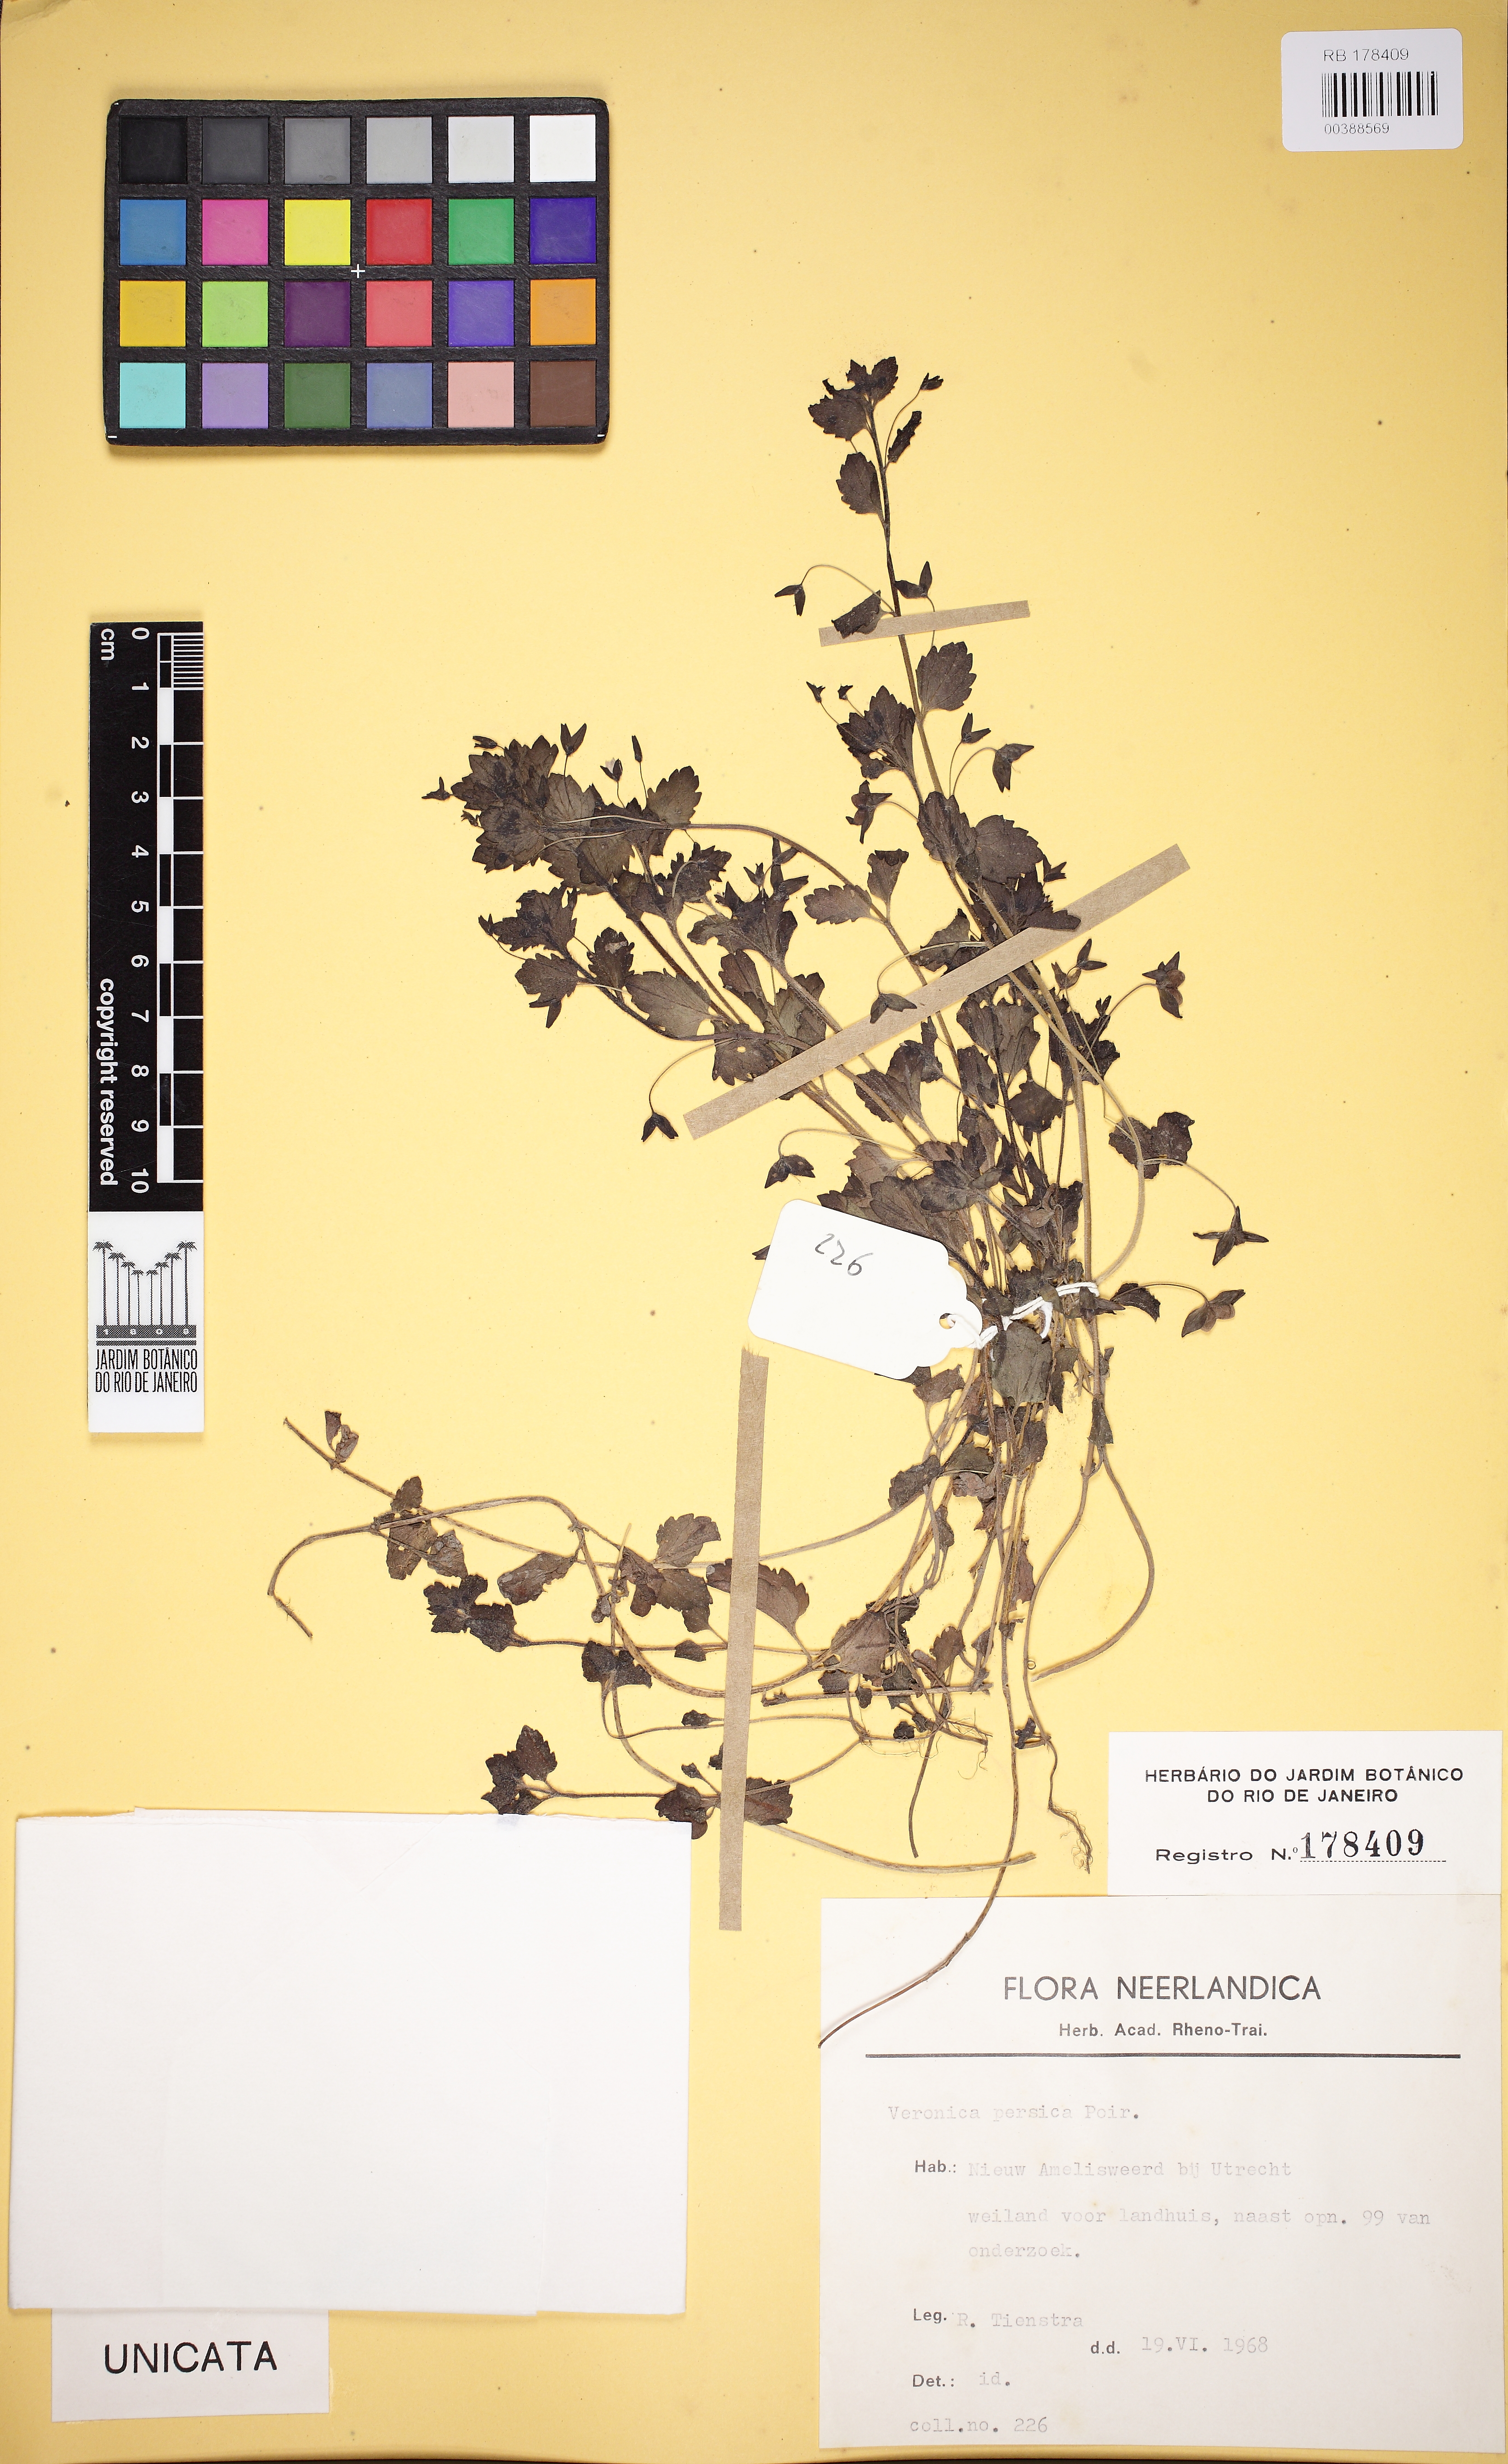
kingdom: Plantae
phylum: Tracheophyta
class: Magnoliopsida
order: Lamiales
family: Plantaginaceae
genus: Veronica
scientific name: Veronica persica
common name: Common field-speedwell
